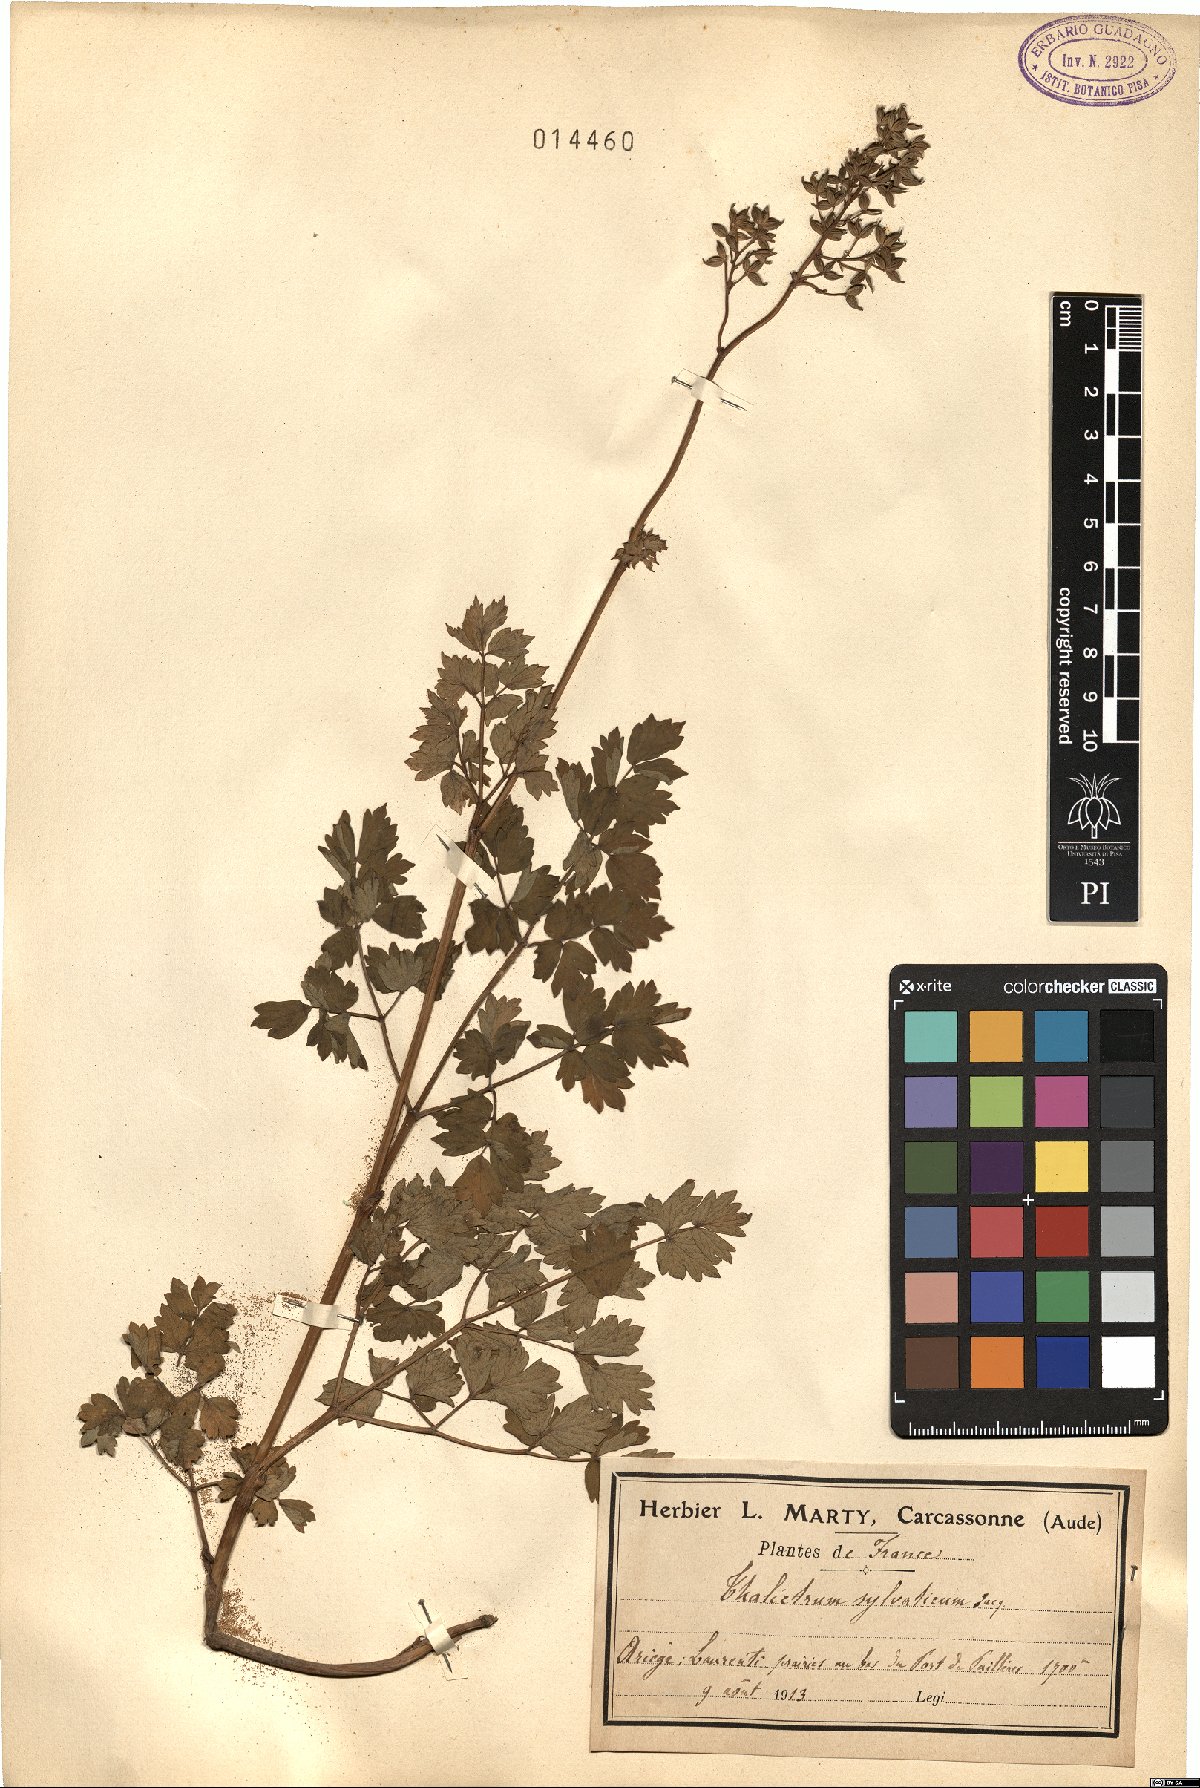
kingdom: Plantae
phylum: Tracheophyta
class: Magnoliopsida
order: Ranunculales
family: Ranunculaceae
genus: Thalictrum
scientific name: Thalictrum minus
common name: Lesser meadow-rue
